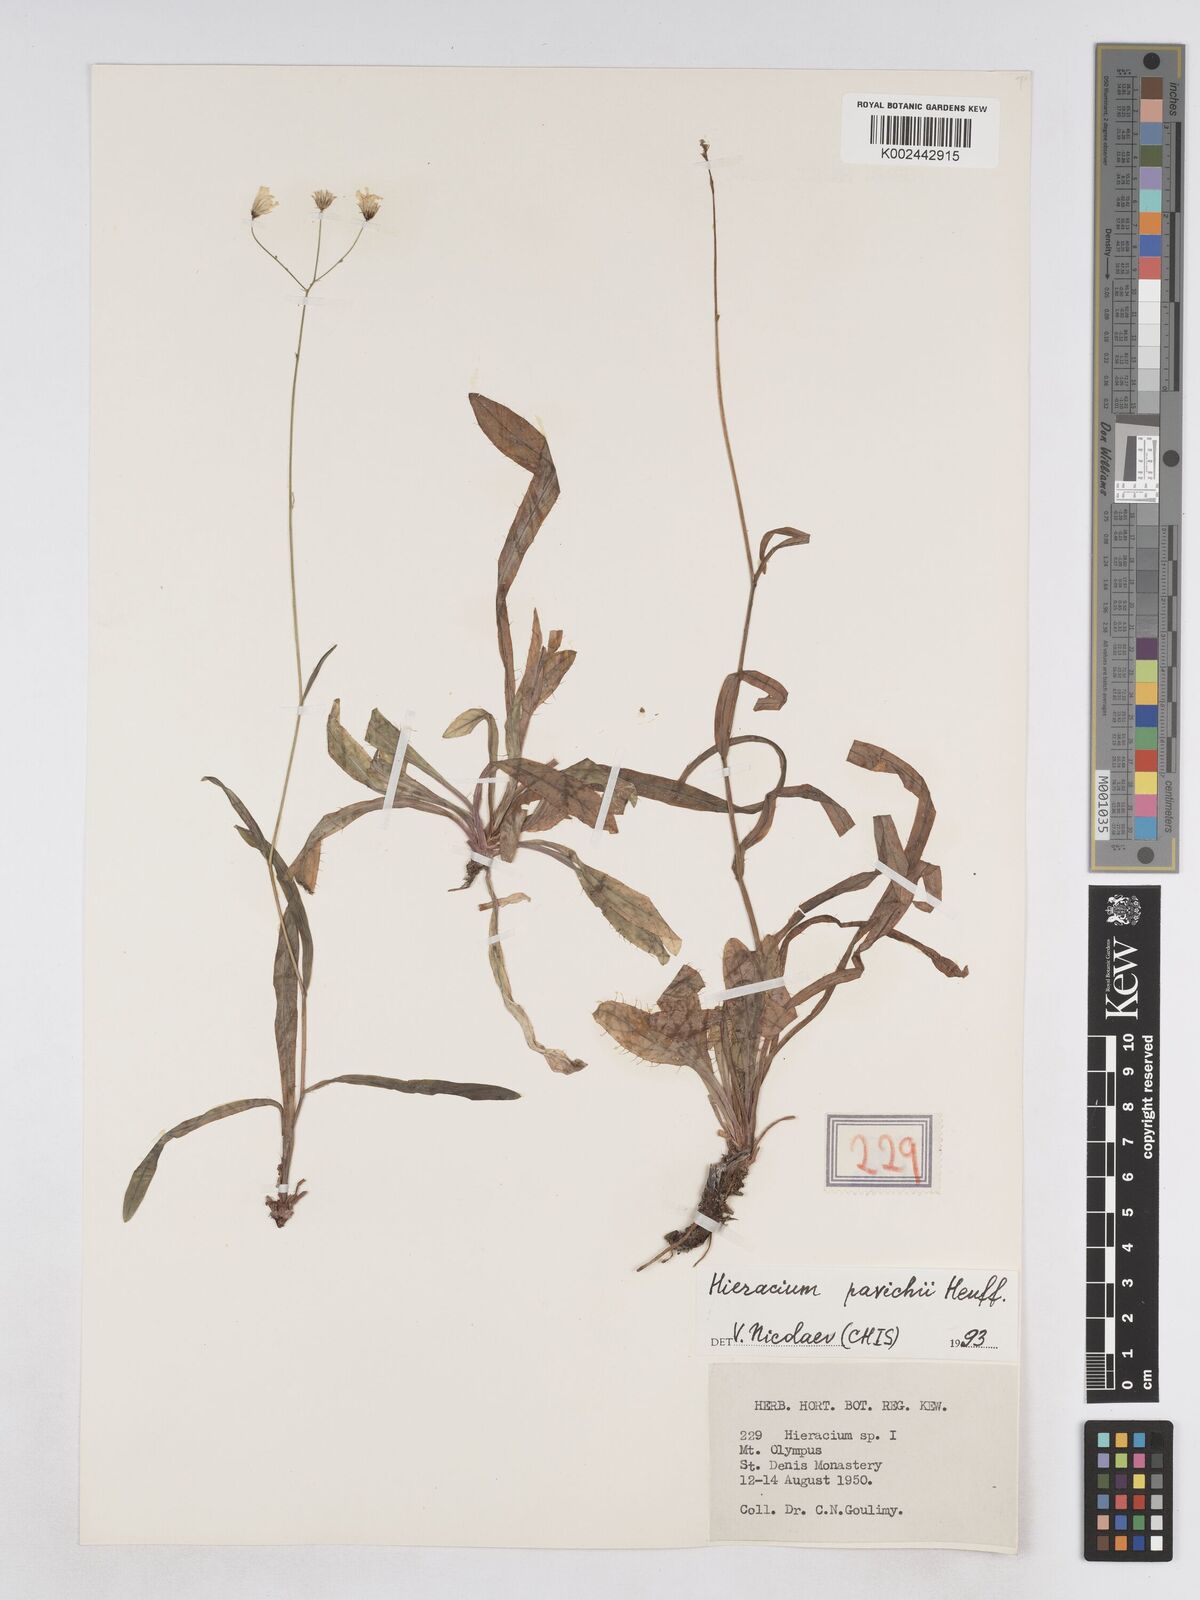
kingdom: Plantae
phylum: Tracheophyta
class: Magnoliopsida
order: Asterales
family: Asteraceae
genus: Pilosella
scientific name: Pilosella pavichii
